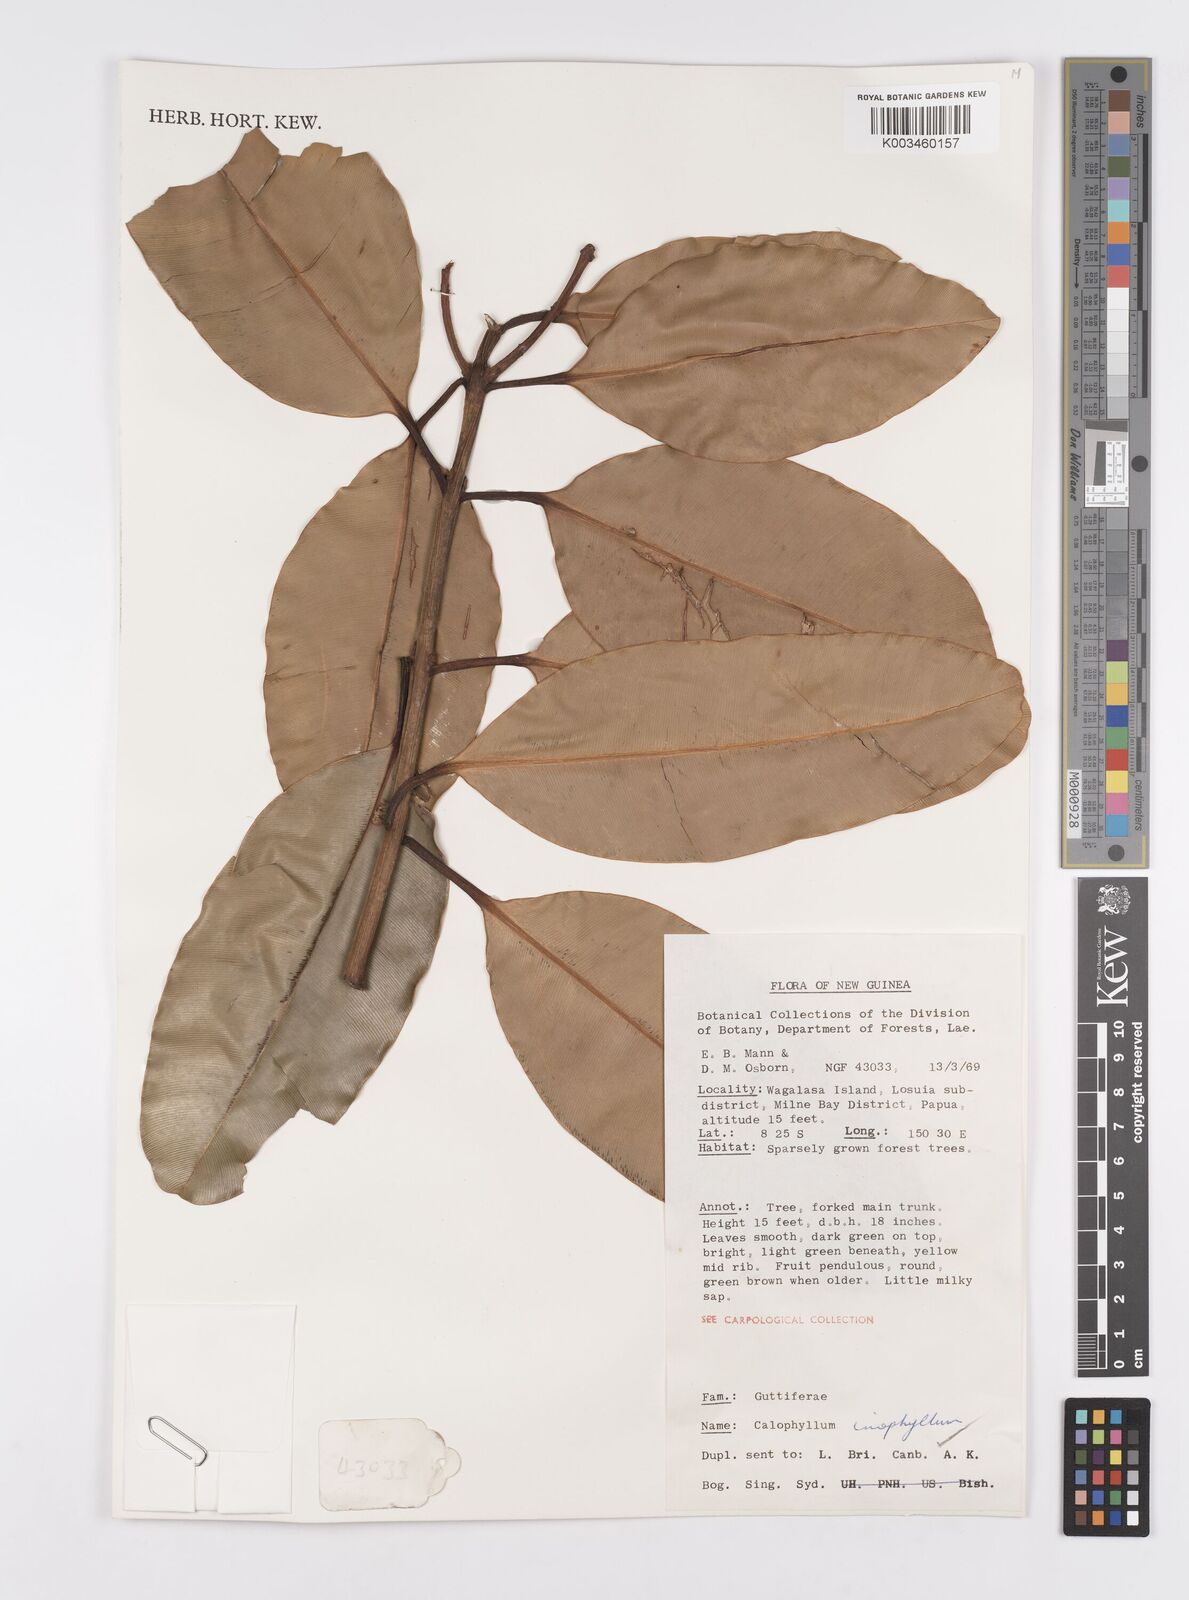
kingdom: Plantae
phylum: Tracheophyta
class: Magnoliopsida
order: Malpighiales
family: Calophyllaceae
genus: Calophyllum
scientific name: Calophyllum inophyllum
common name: Alexandrian laurel
